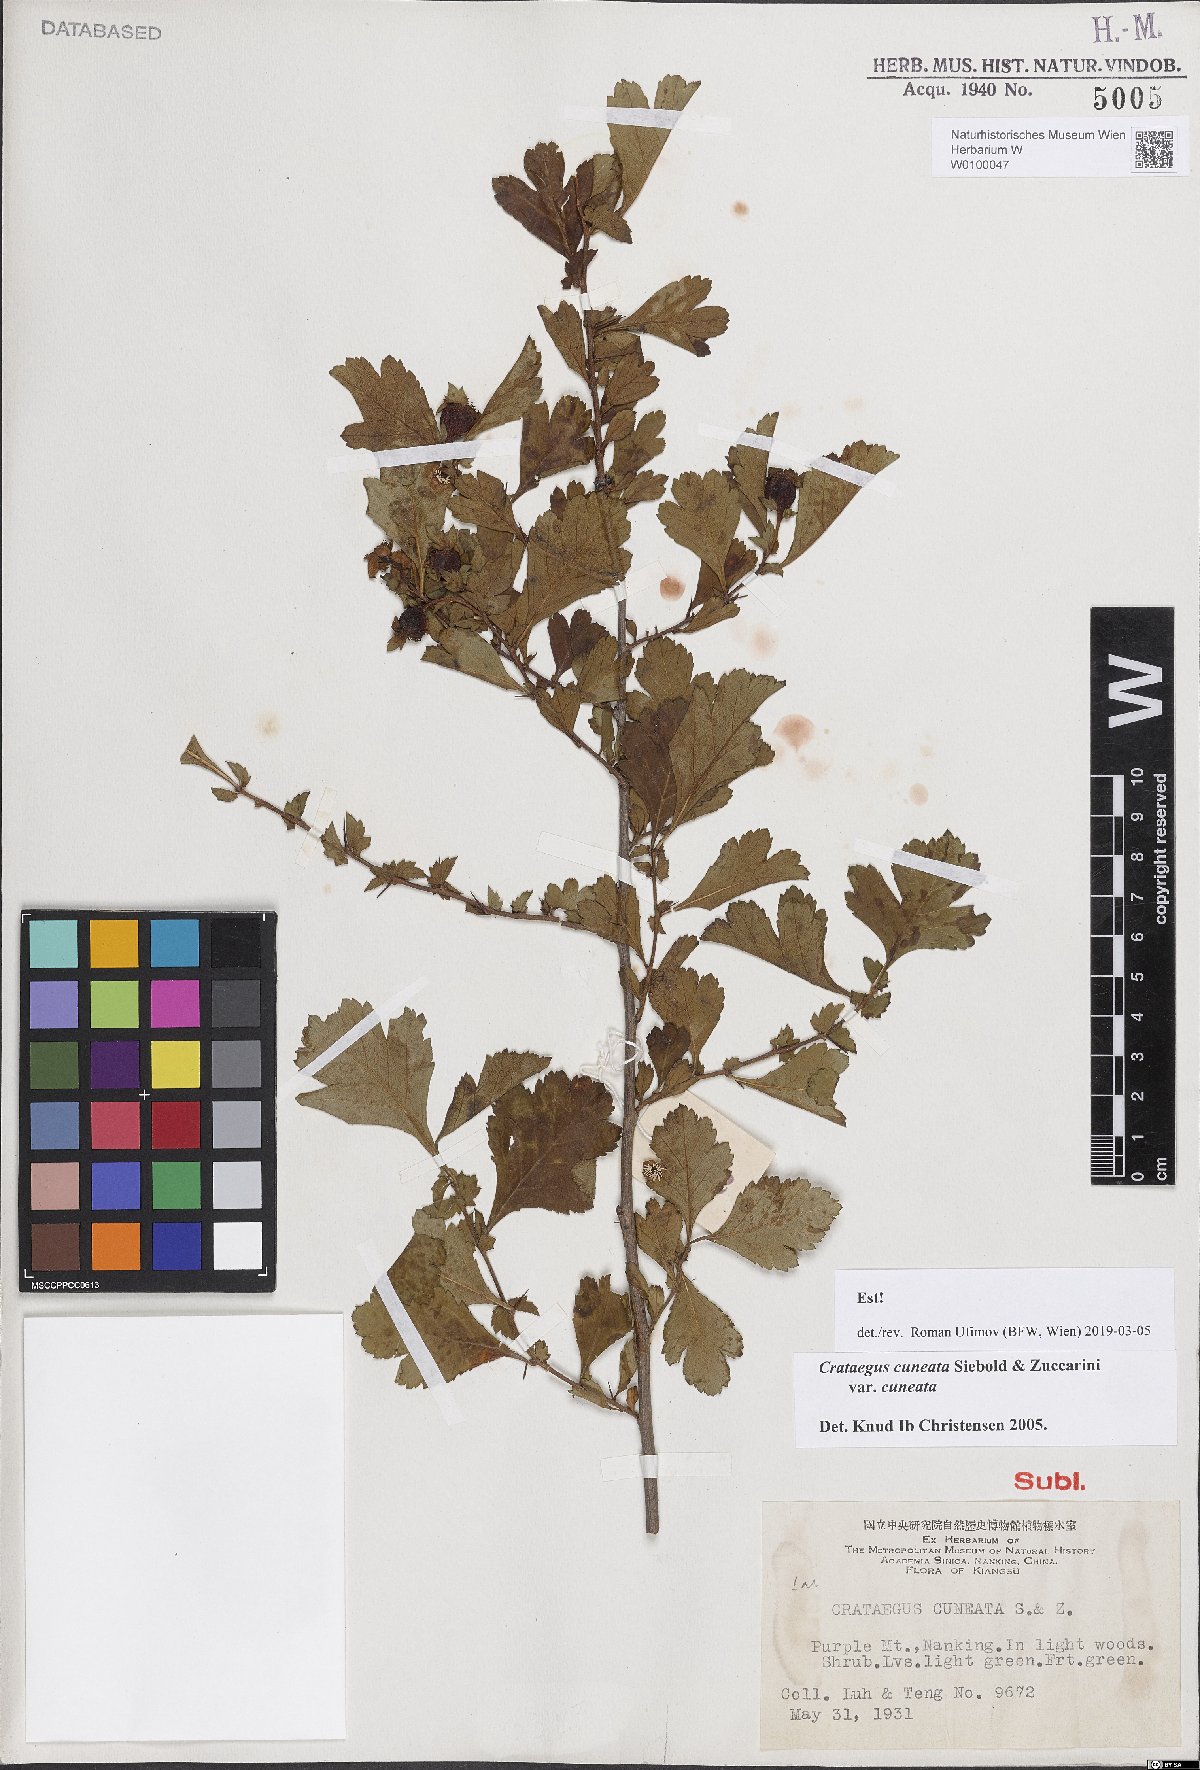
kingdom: Plantae
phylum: Tracheophyta
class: Magnoliopsida
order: Rosales
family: Rosaceae
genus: Crataegus
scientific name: Crataegus cuneata
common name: Chinese hawthorn
